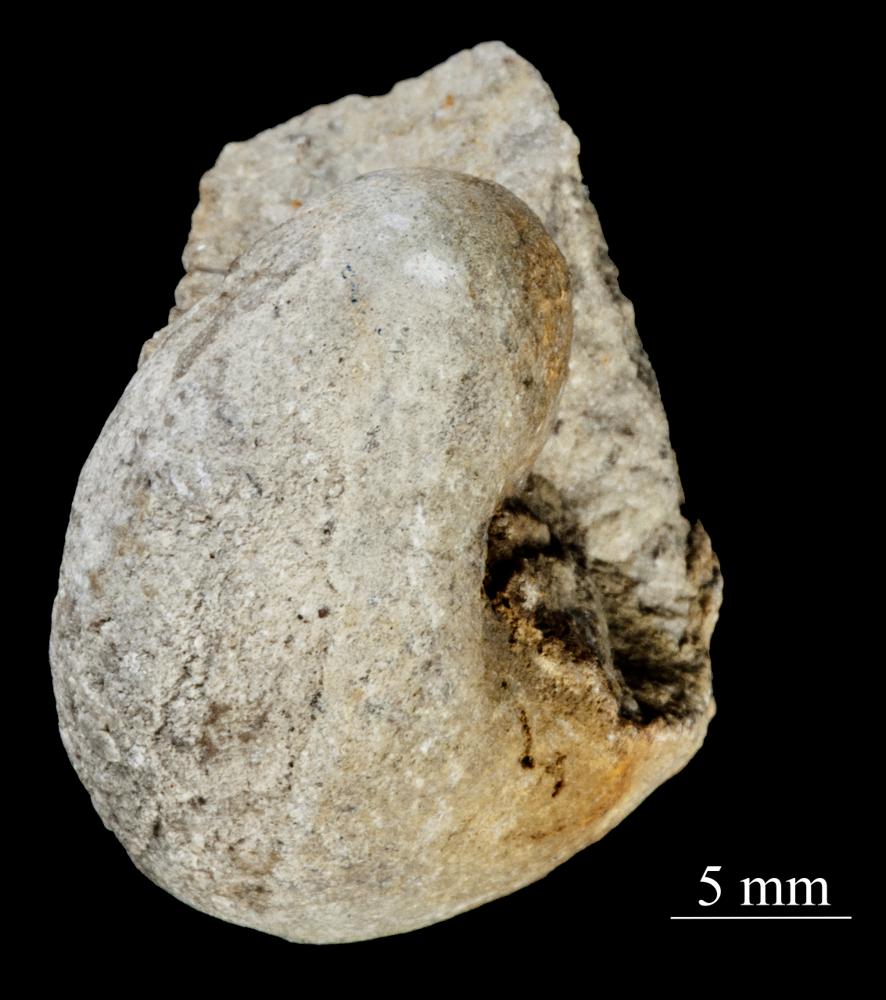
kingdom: Animalia
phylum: Mollusca
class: Gastropoda
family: Sinuitidae
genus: Sinuites
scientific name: Sinuites bilobatus
